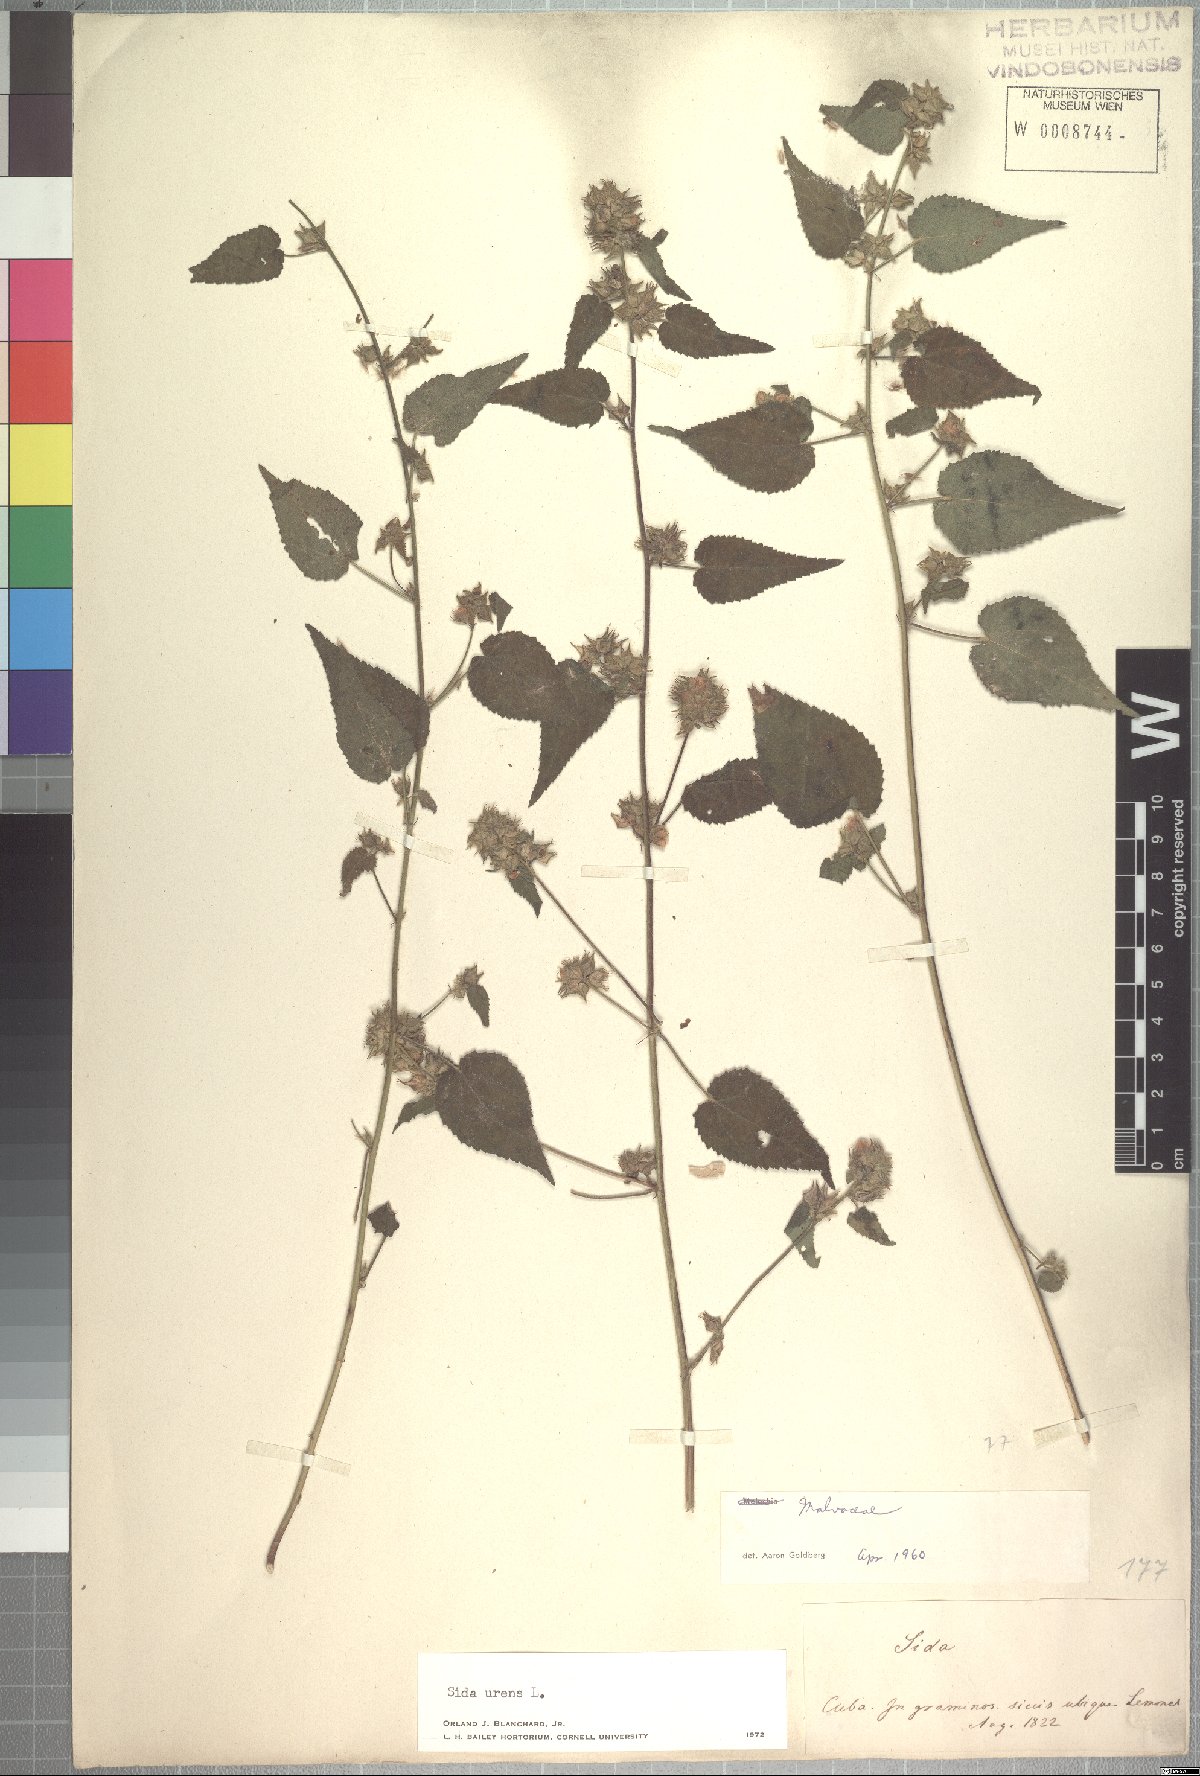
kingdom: Plantae
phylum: Tracheophyta
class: Magnoliopsida
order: Malvales
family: Malvaceae
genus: Sida
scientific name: Sida urens
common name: Tropical fanpetals
